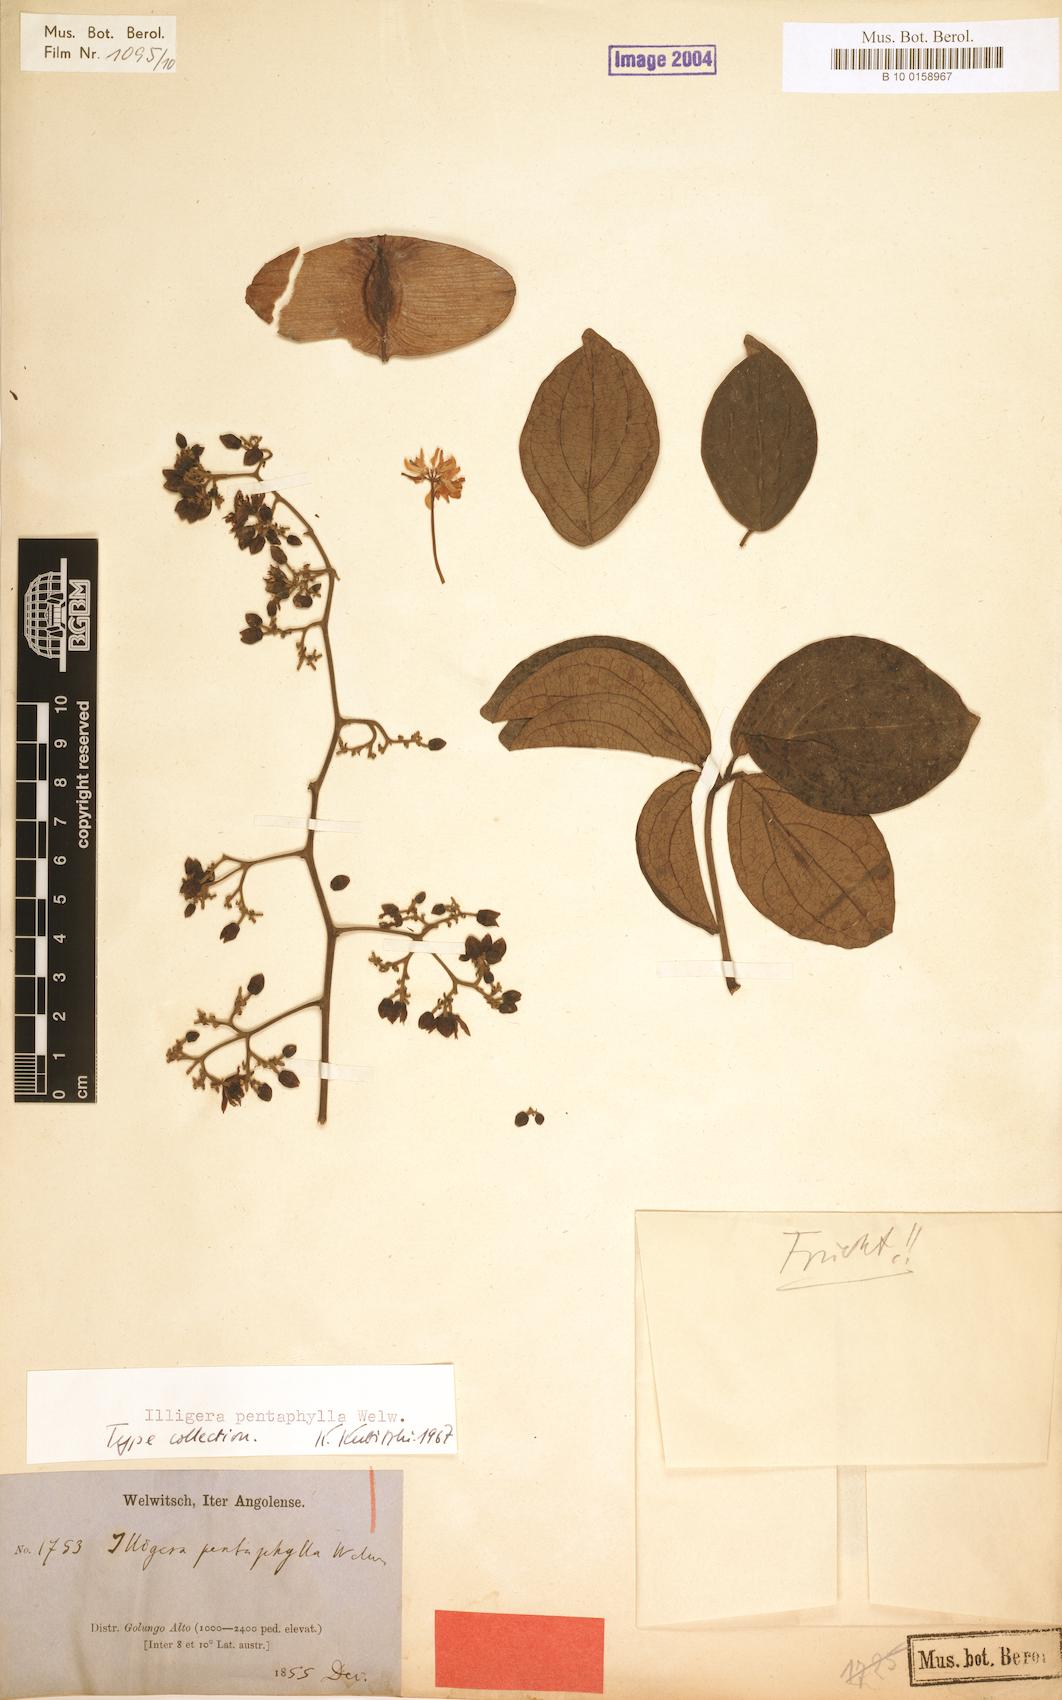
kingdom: Plantae
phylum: Tracheophyta
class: Magnoliopsida
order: Laurales
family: Hernandiaceae
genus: Illigera
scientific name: Illigera pentaphylla
